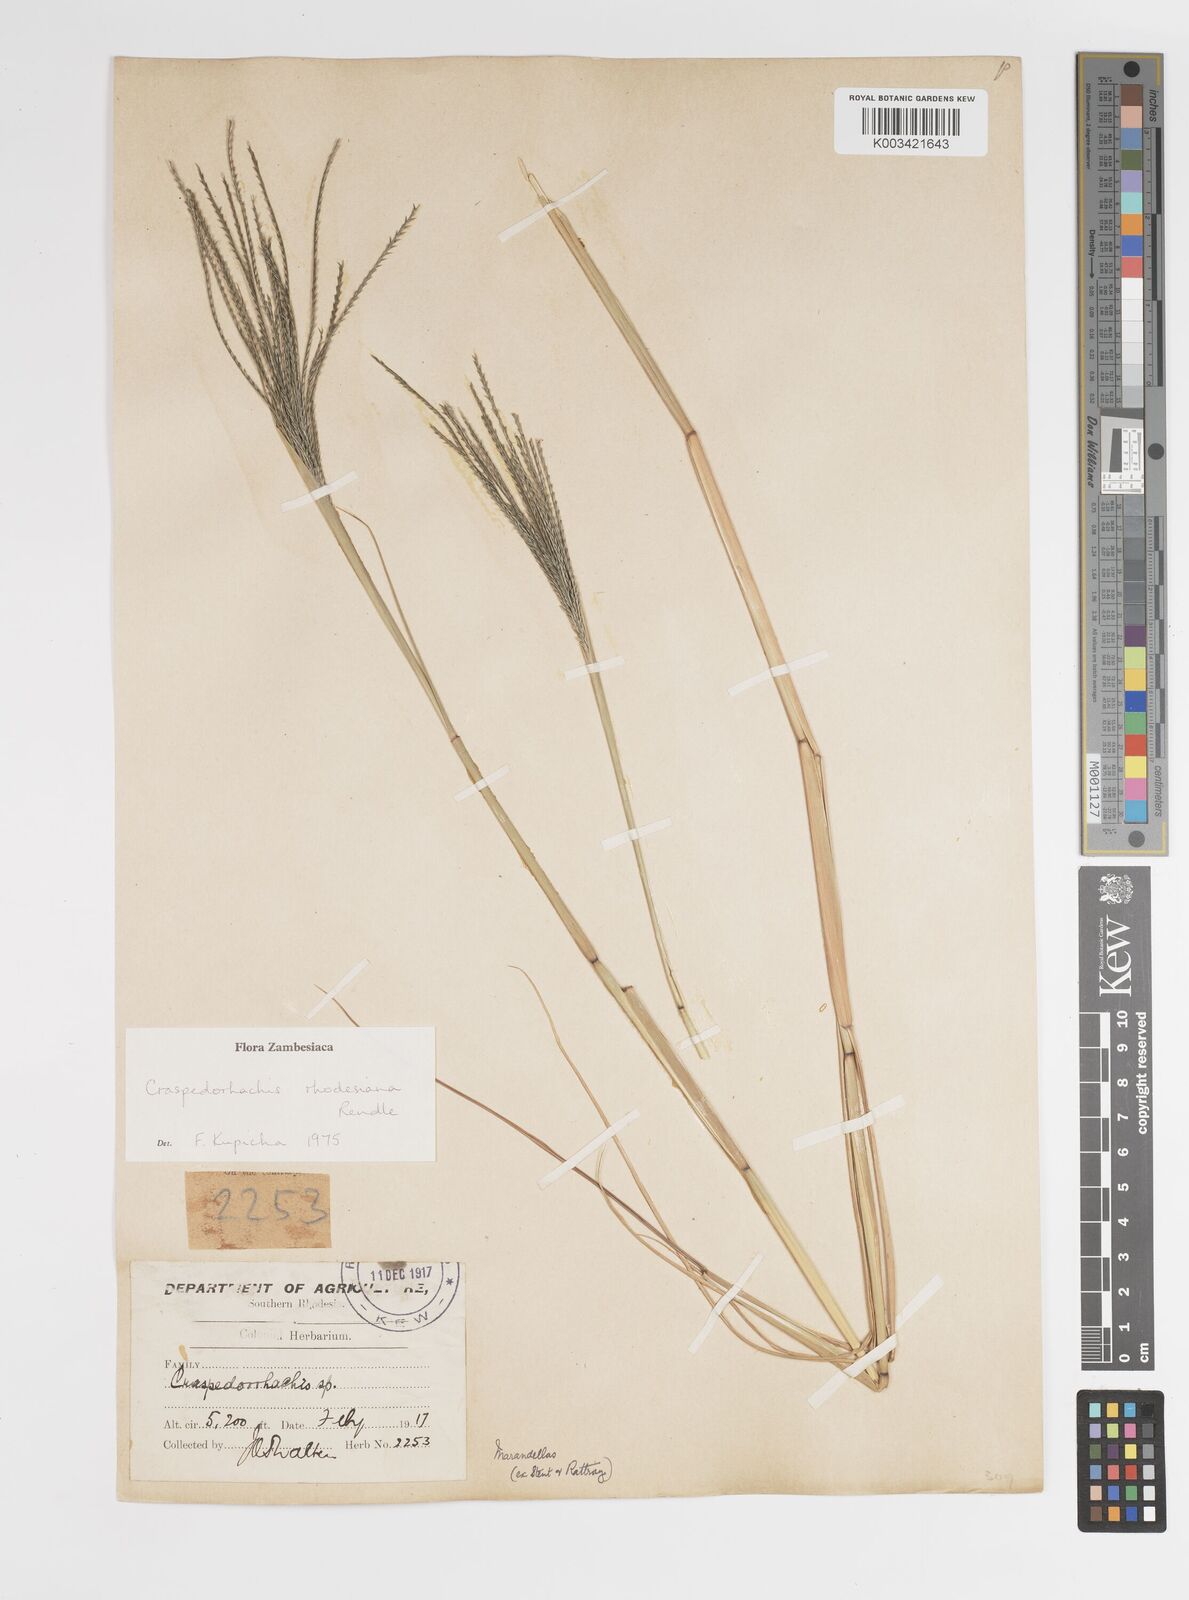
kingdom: Plantae
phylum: Tracheophyta
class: Liliopsida
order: Poales
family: Poaceae
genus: Craspedorhachis
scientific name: Craspedorhachis rhodesiana
